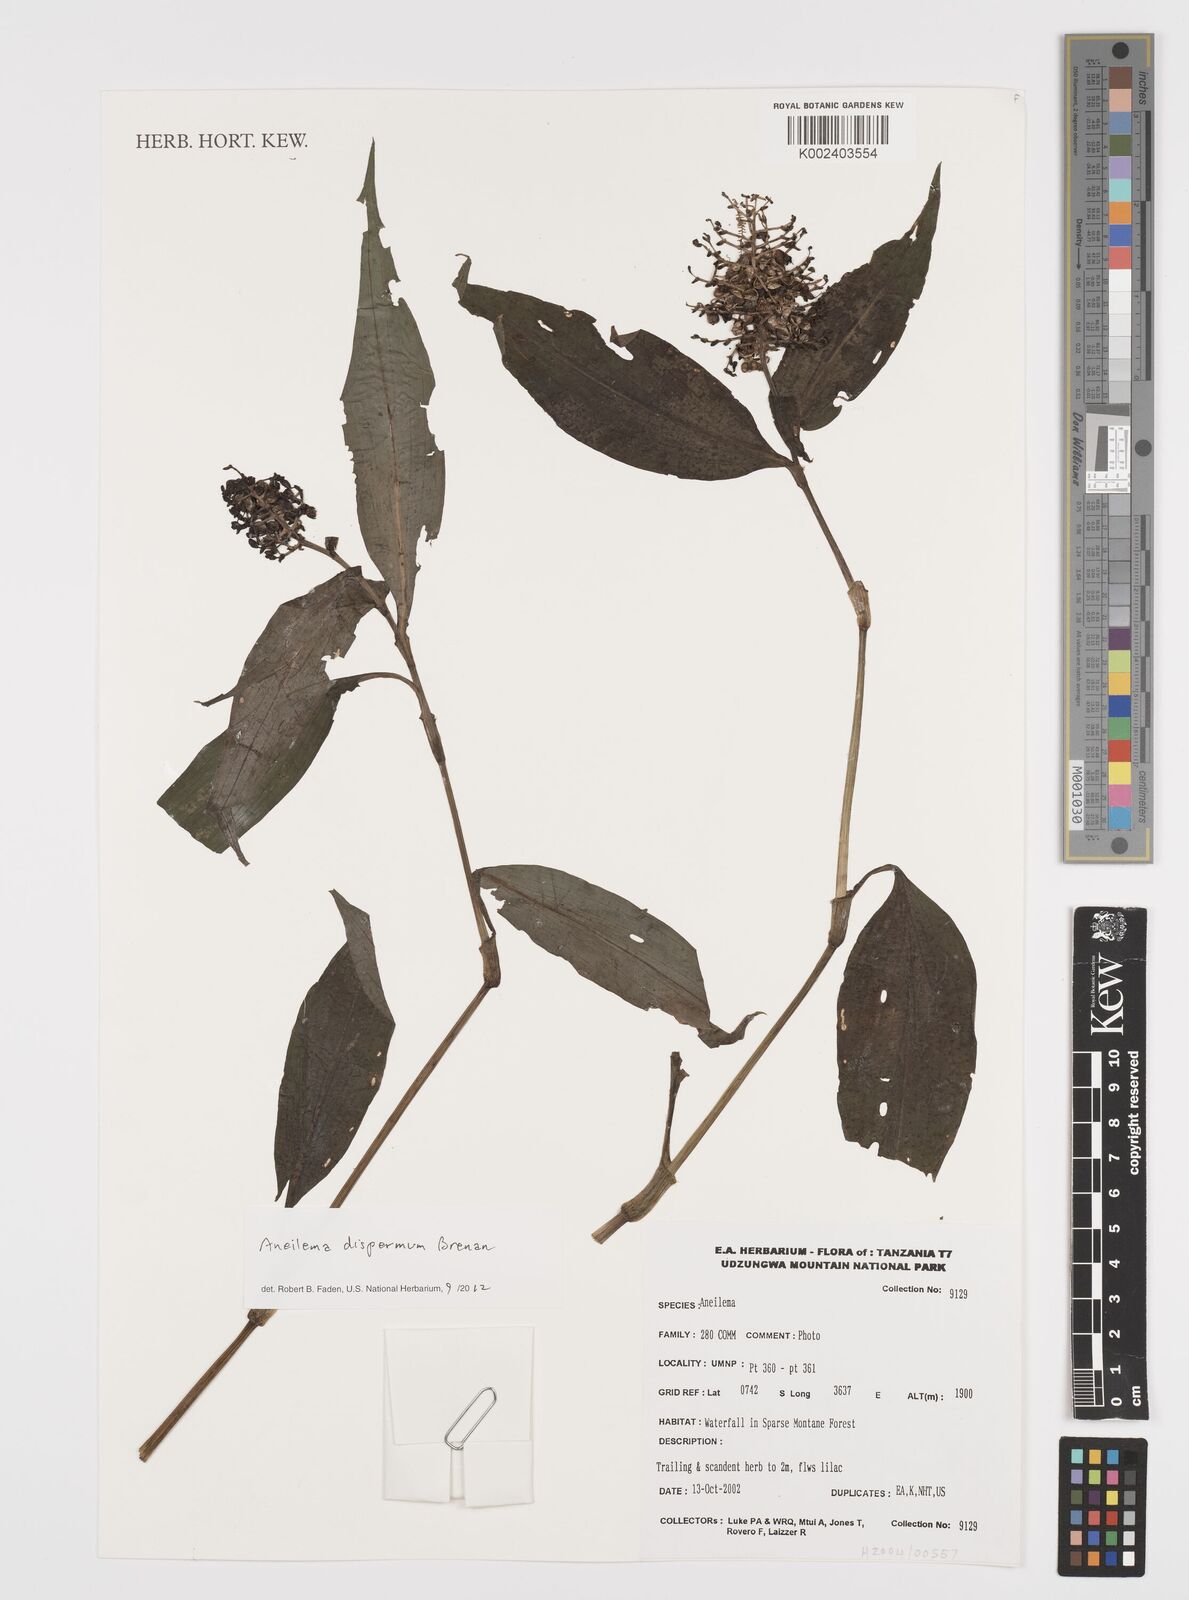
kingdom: Plantae
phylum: Tracheophyta
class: Liliopsida
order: Commelinales
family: Commelinaceae
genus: Aneilema
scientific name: Aneilema dispermum
